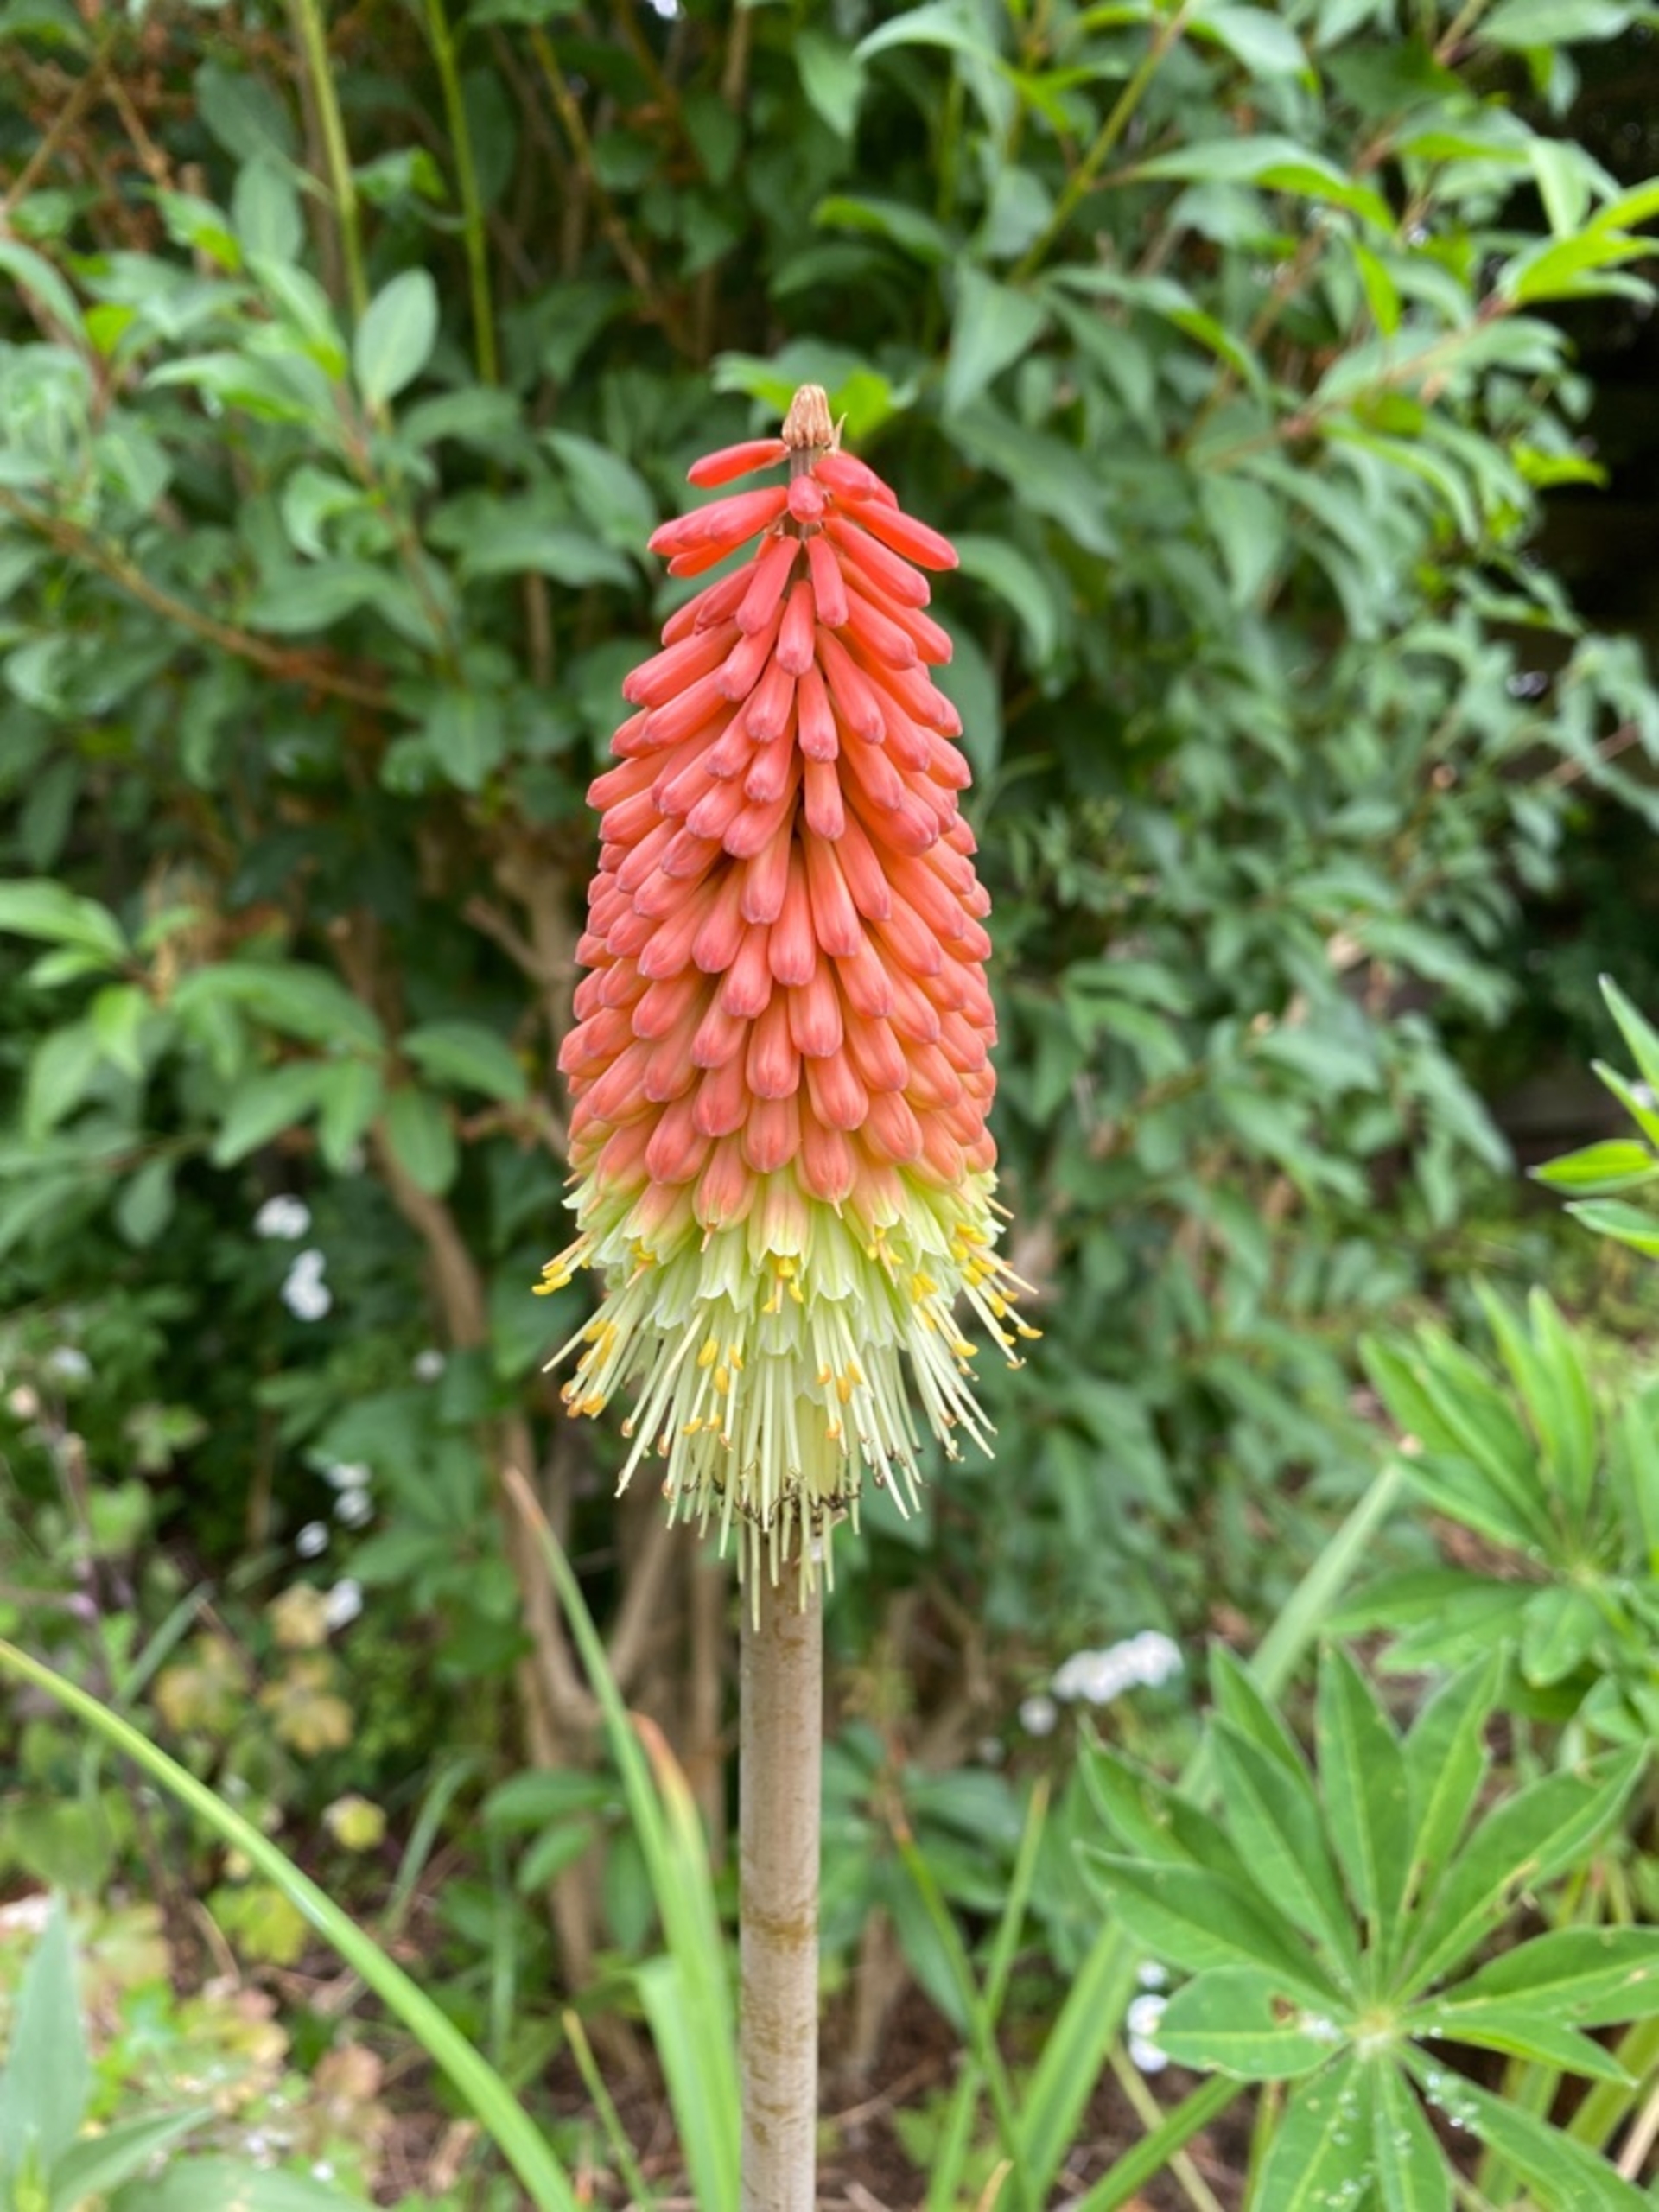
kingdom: Plantae
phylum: Tracheophyta
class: Liliopsida
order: Asparagales
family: Asphodelaceae
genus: Kniphofia
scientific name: Kniphofia hybrida
